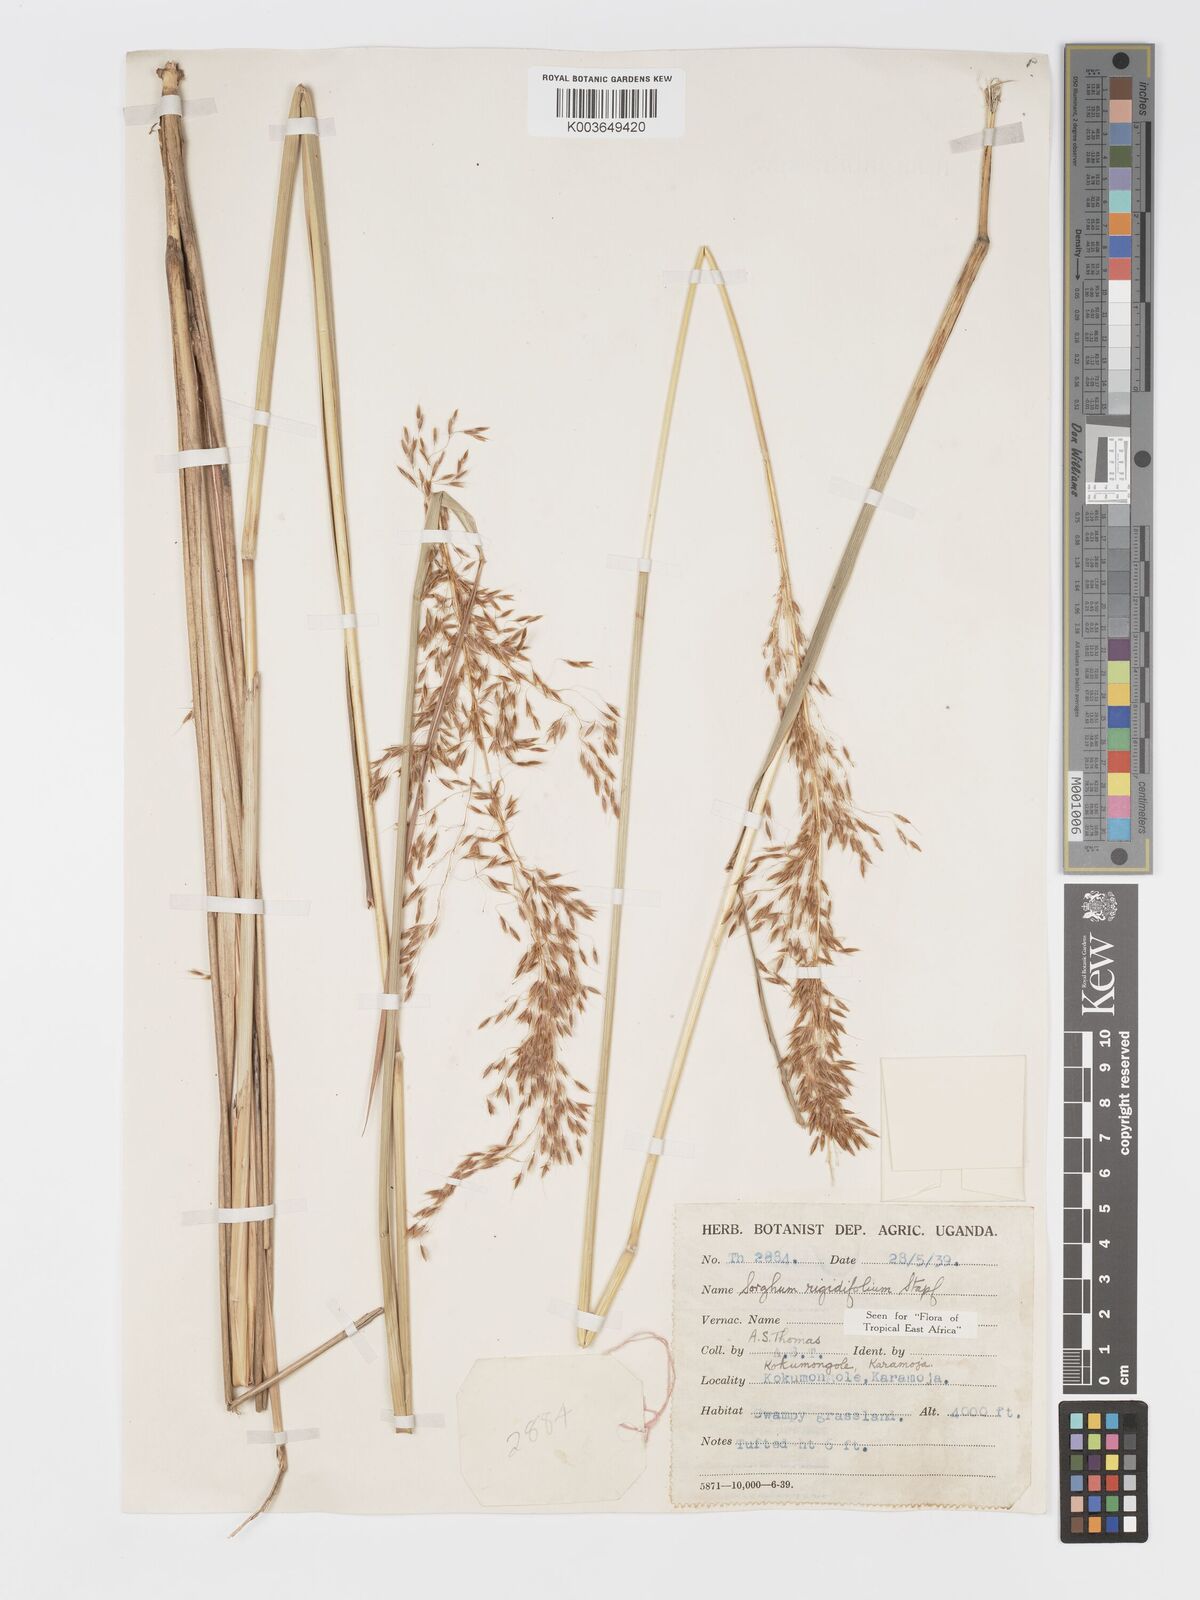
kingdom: Plantae
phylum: Tracheophyta
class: Liliopsida
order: Poales
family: Poaceae
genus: Sorghastrum
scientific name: Sorghastrum stipoides
